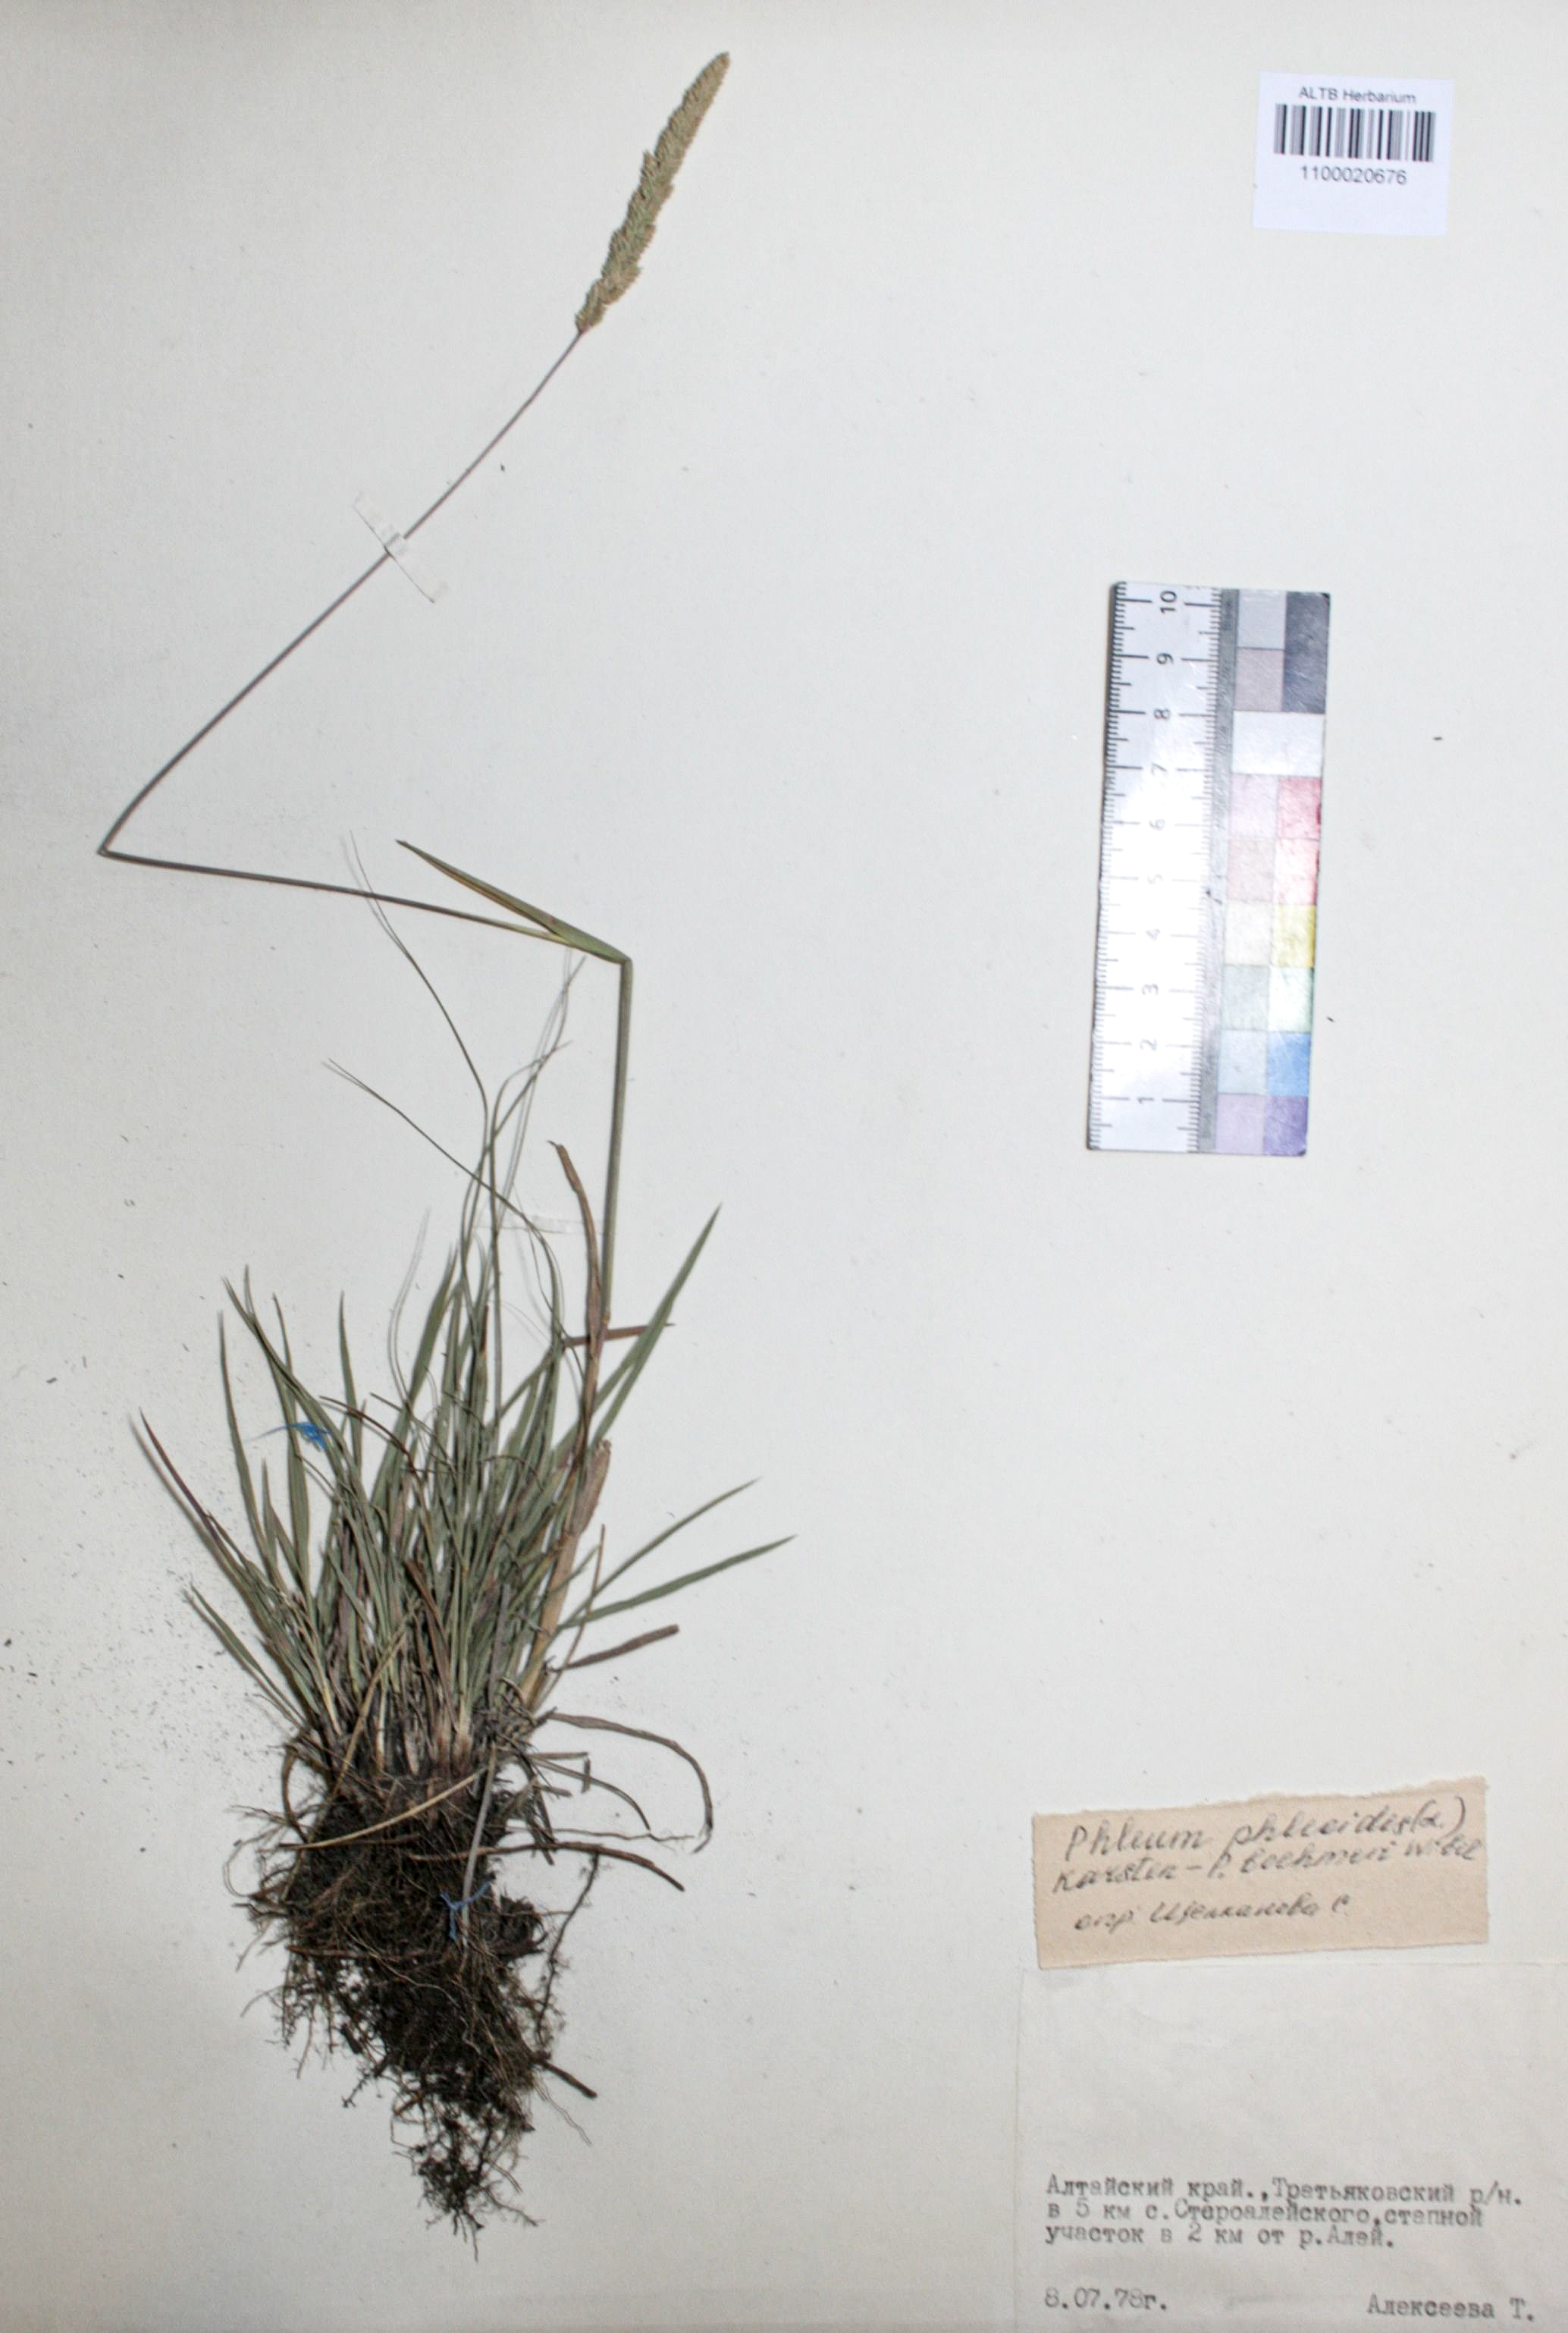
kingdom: Plantae
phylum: Tracheophyta
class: Liliopsida
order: Poales
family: Poaceae
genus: Phleum
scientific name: Phleum phleoides
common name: Purple-stem cat's-tail
